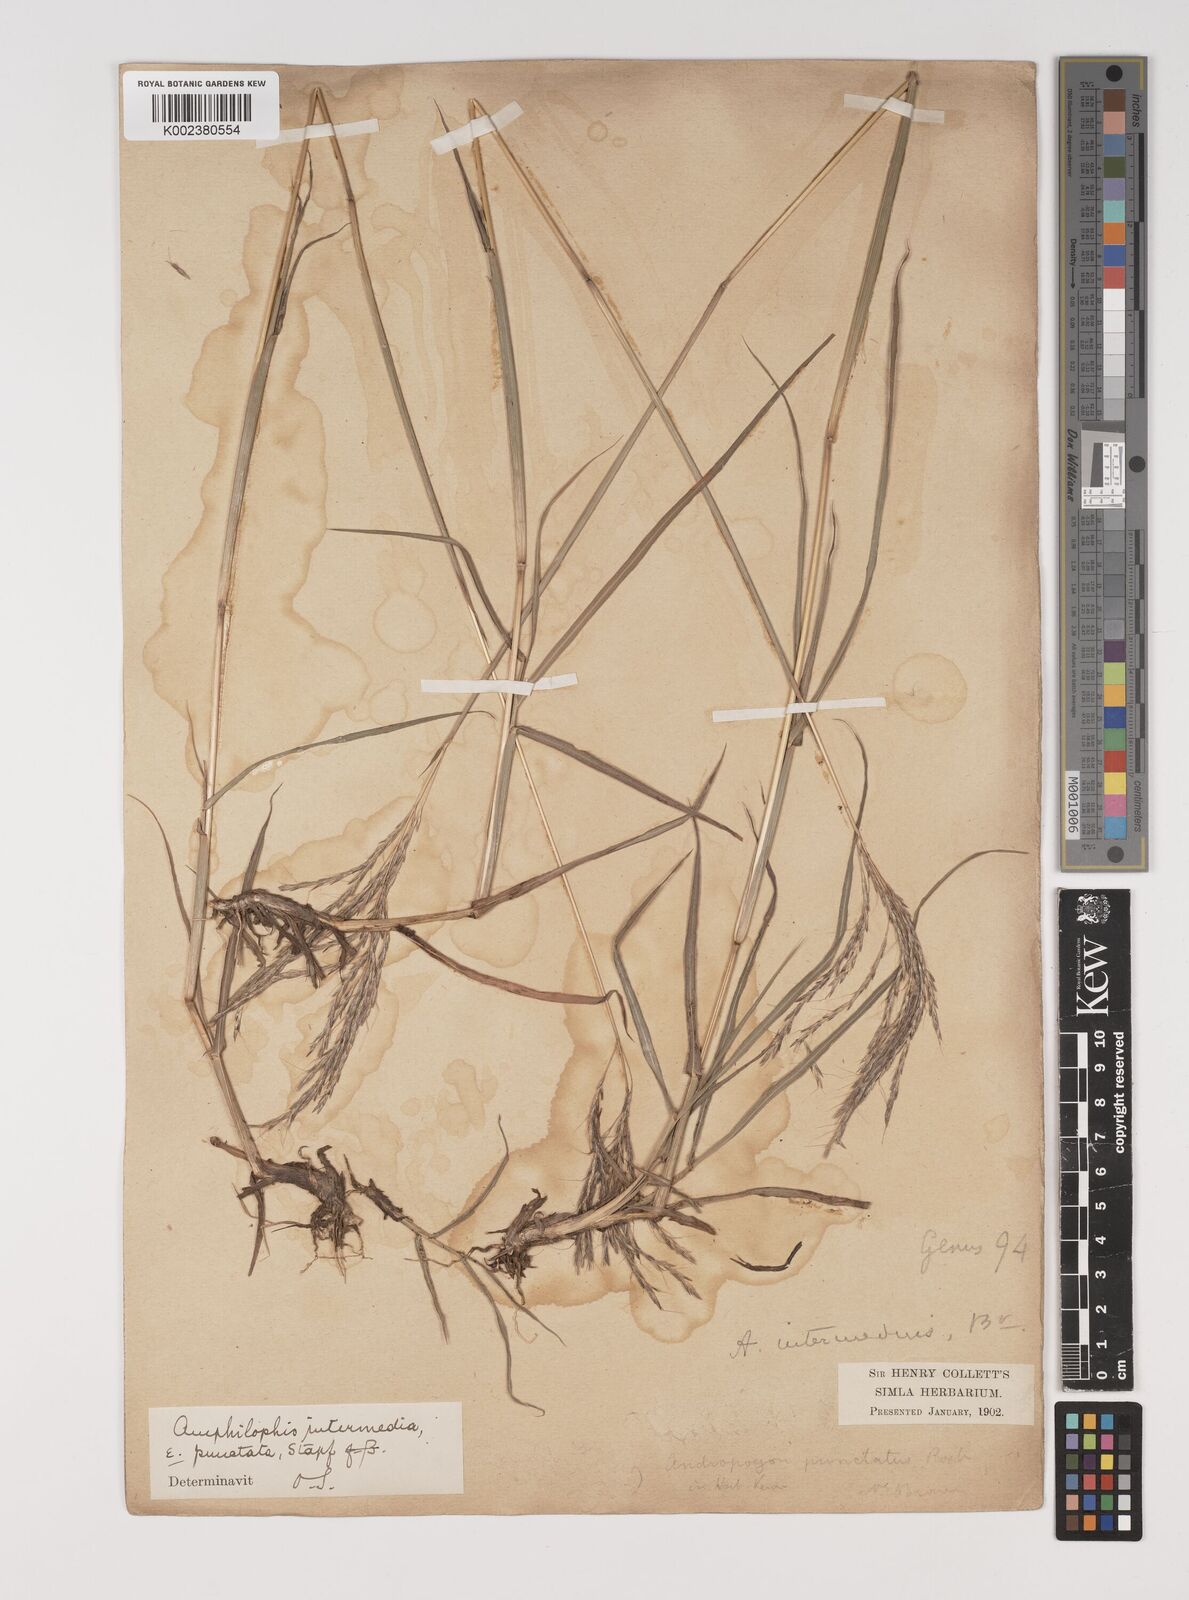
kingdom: Plantae
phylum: Tracheophyta
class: Liliopsida
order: Poales
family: Poaceae
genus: Bothriochloa
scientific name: Bothriochloa bladhii
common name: Caucasian bluestem
